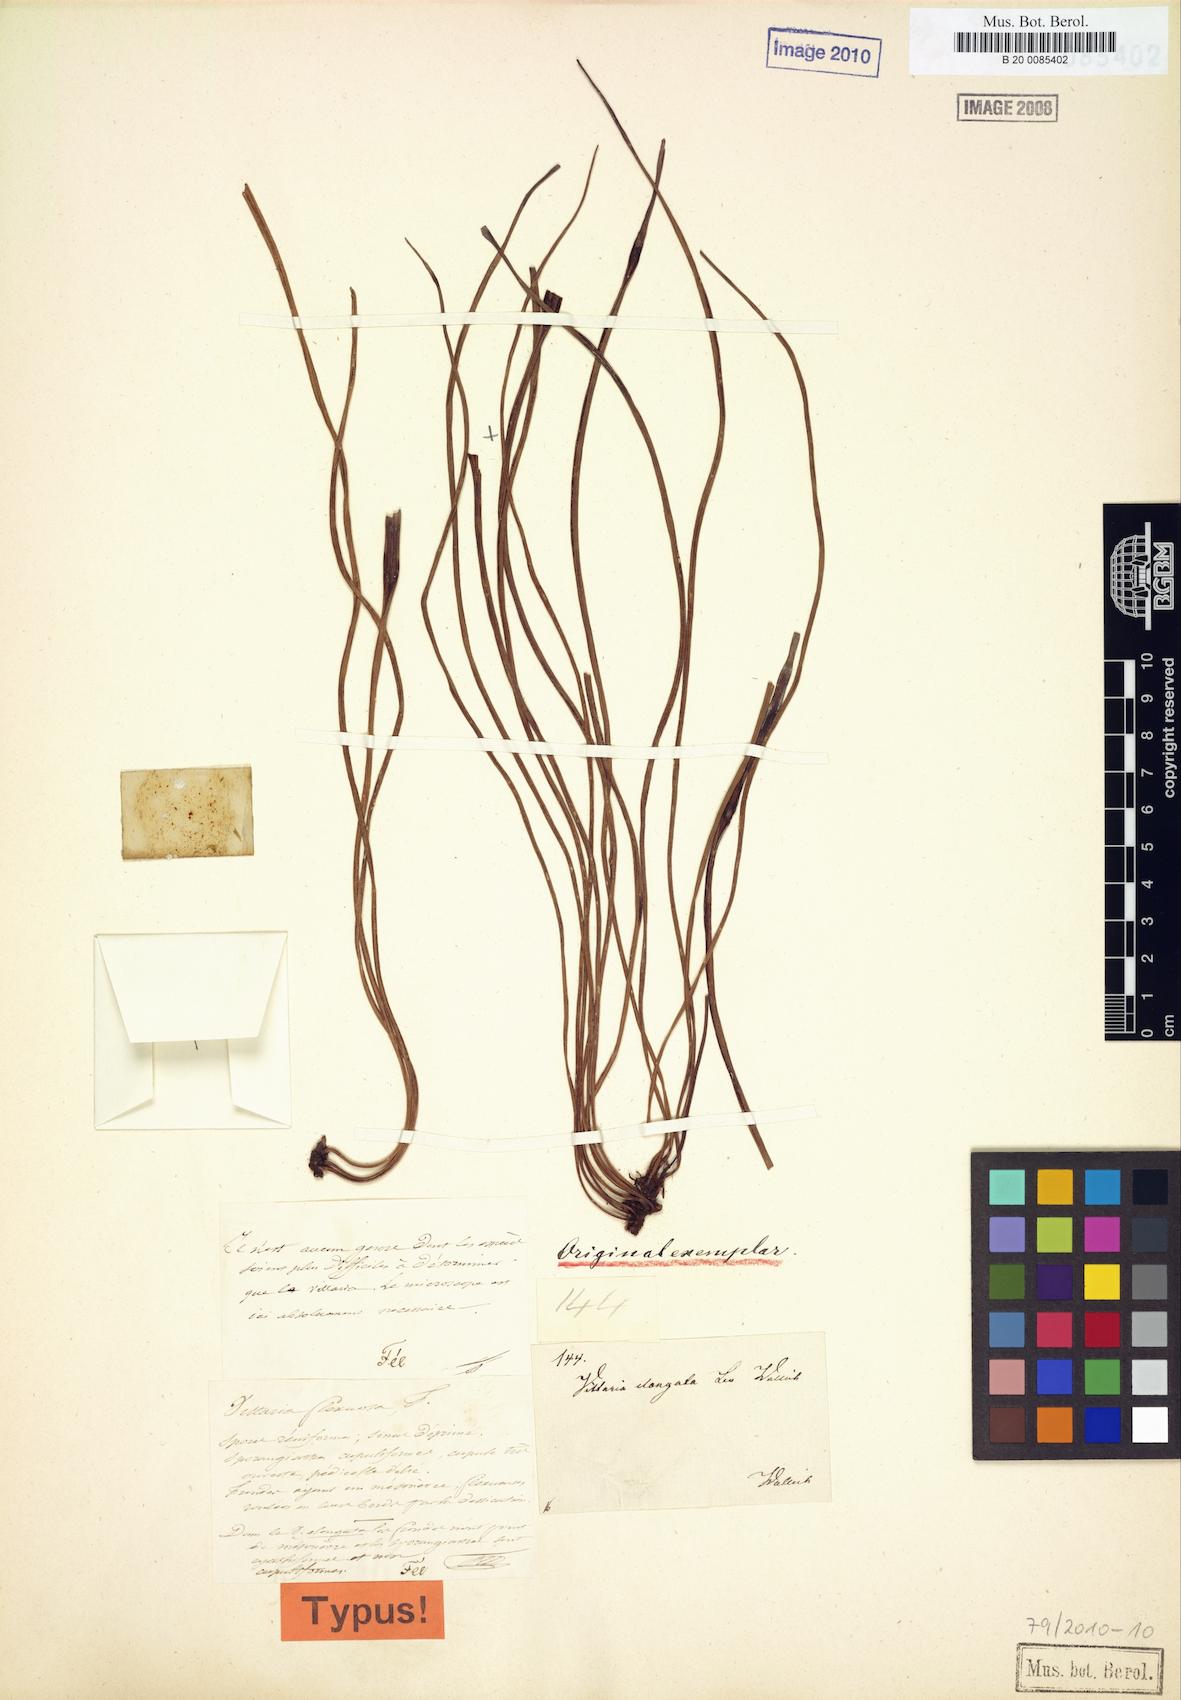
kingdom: Plantae
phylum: Tracheophyta
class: Polypodiopsida
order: Polypodiales
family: Pteridaceae
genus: Haplopteris
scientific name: Haplopteris flexuosa
